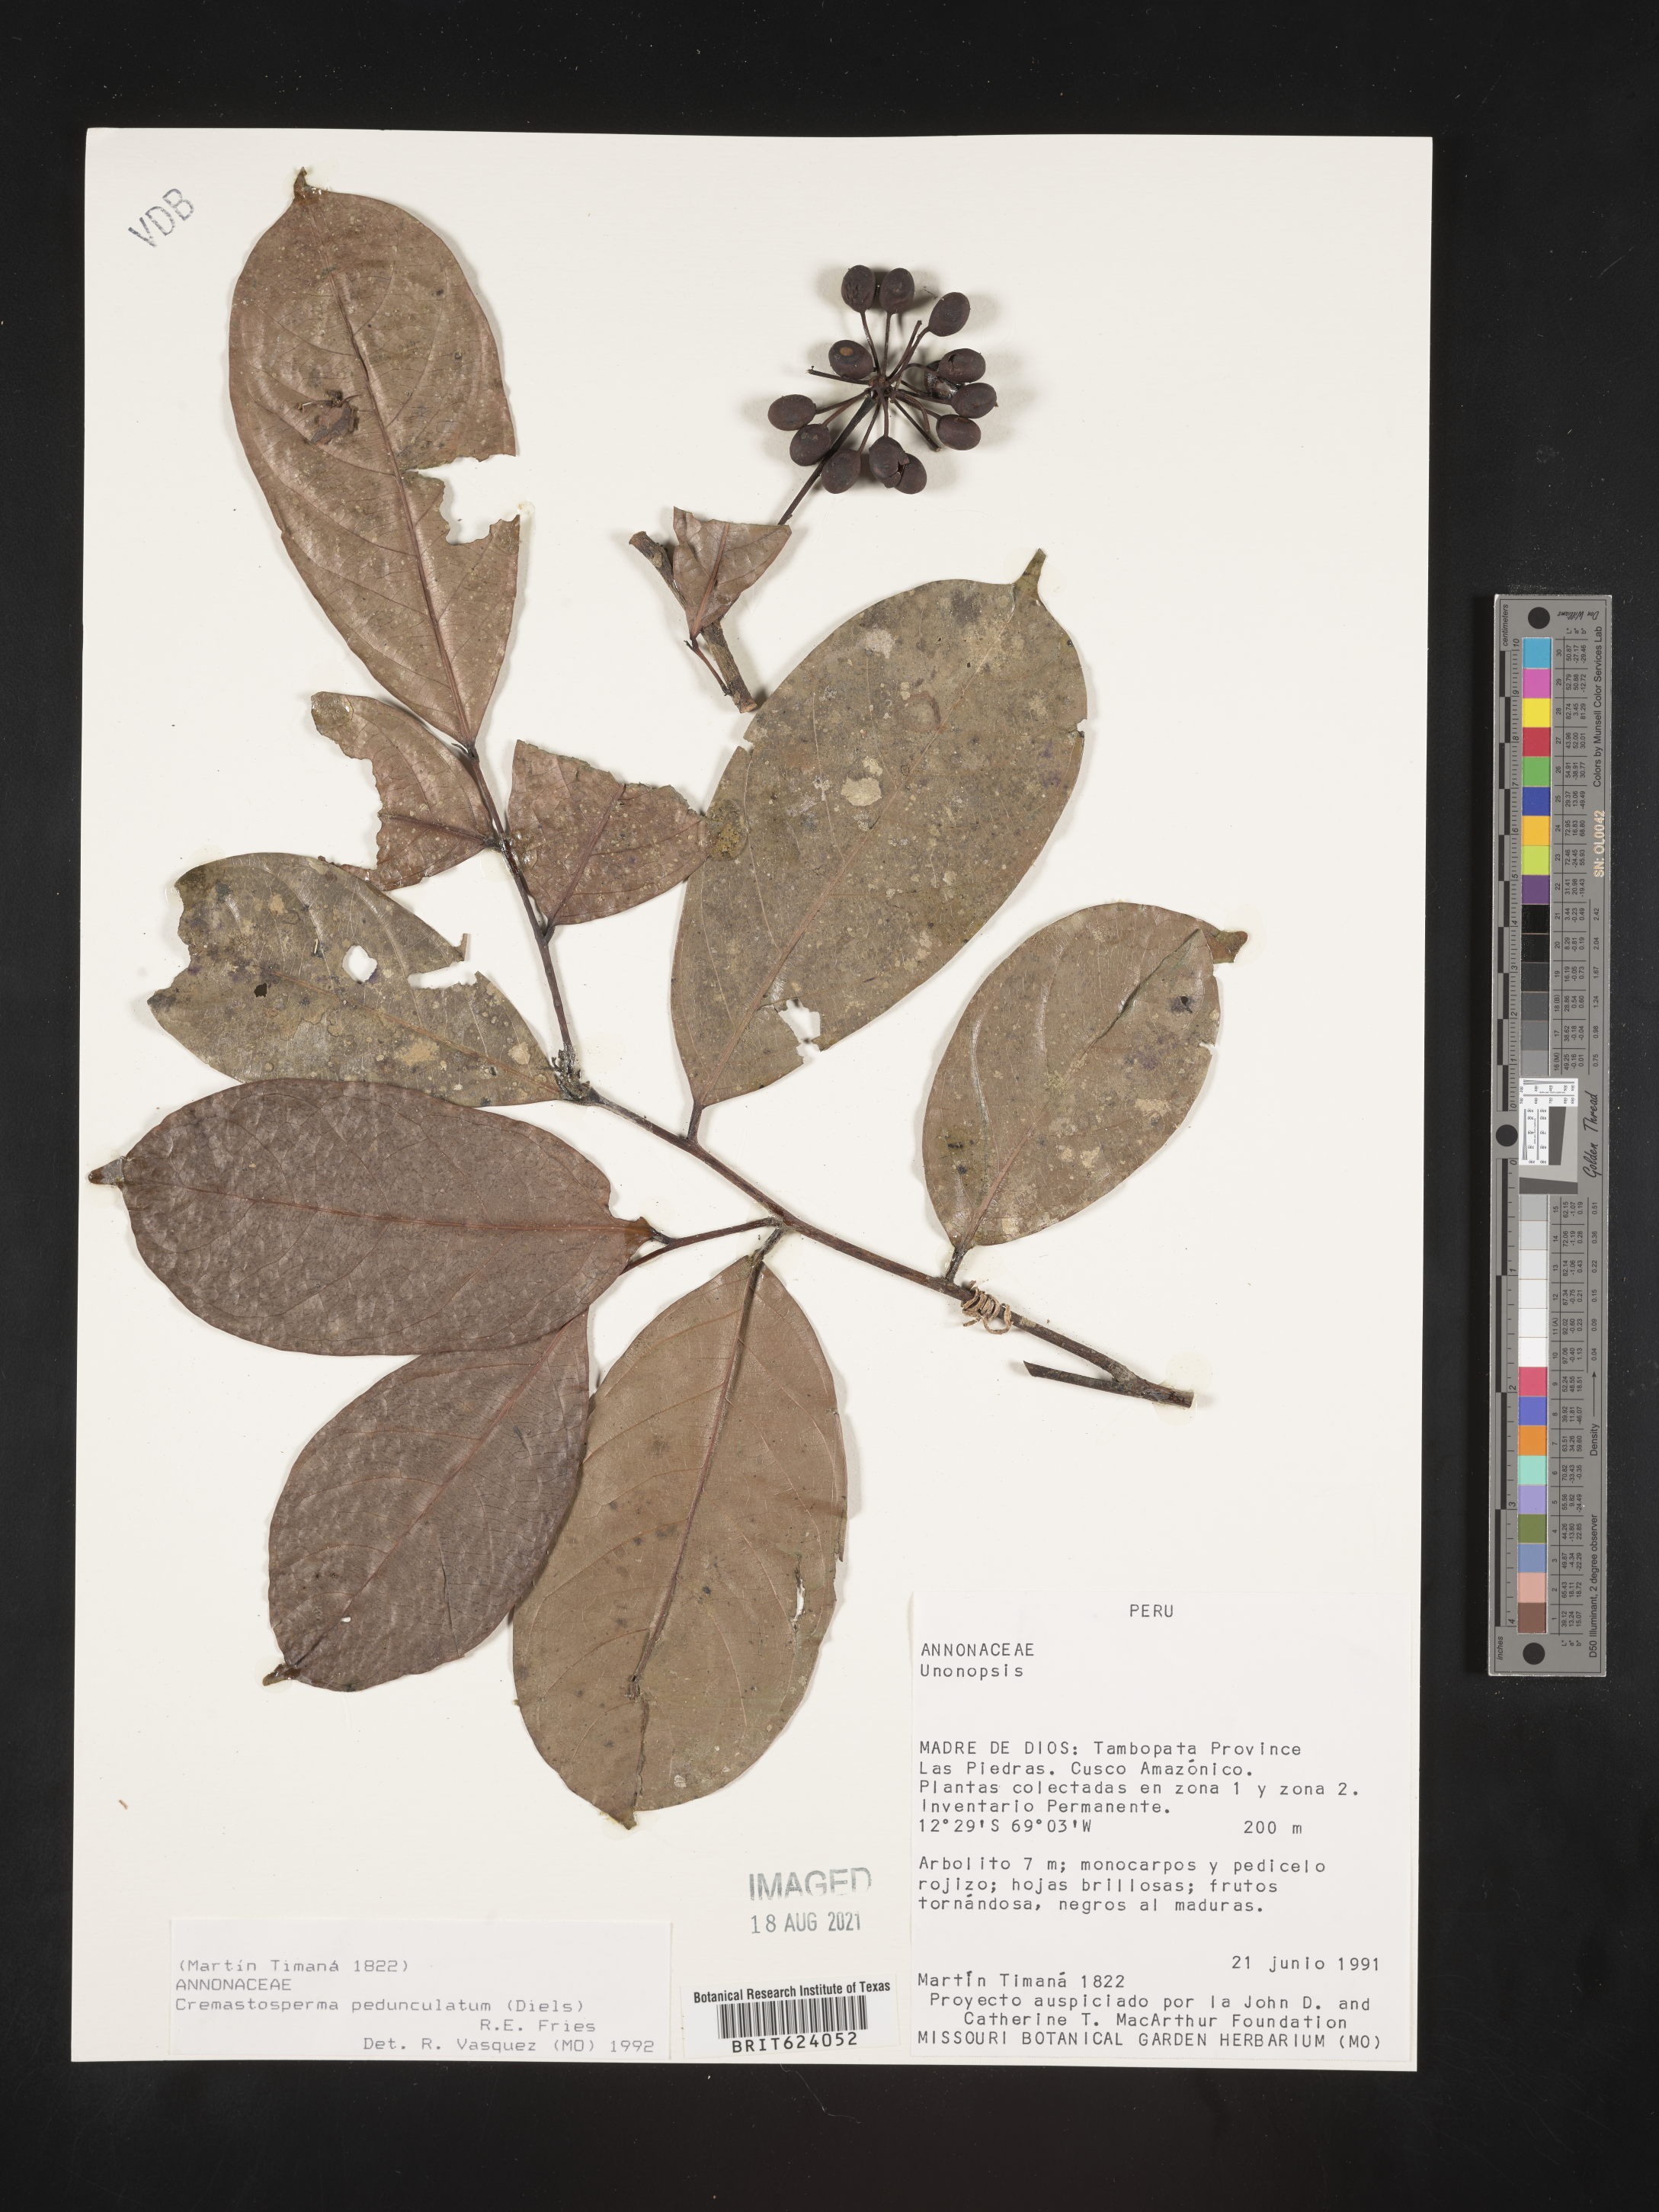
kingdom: Plantae
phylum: Tracheophyta
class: Magnoliopsida
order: Magnoliales
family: Annonaceae
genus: Cremastosperma
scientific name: Cremastosperma pedunculatum
